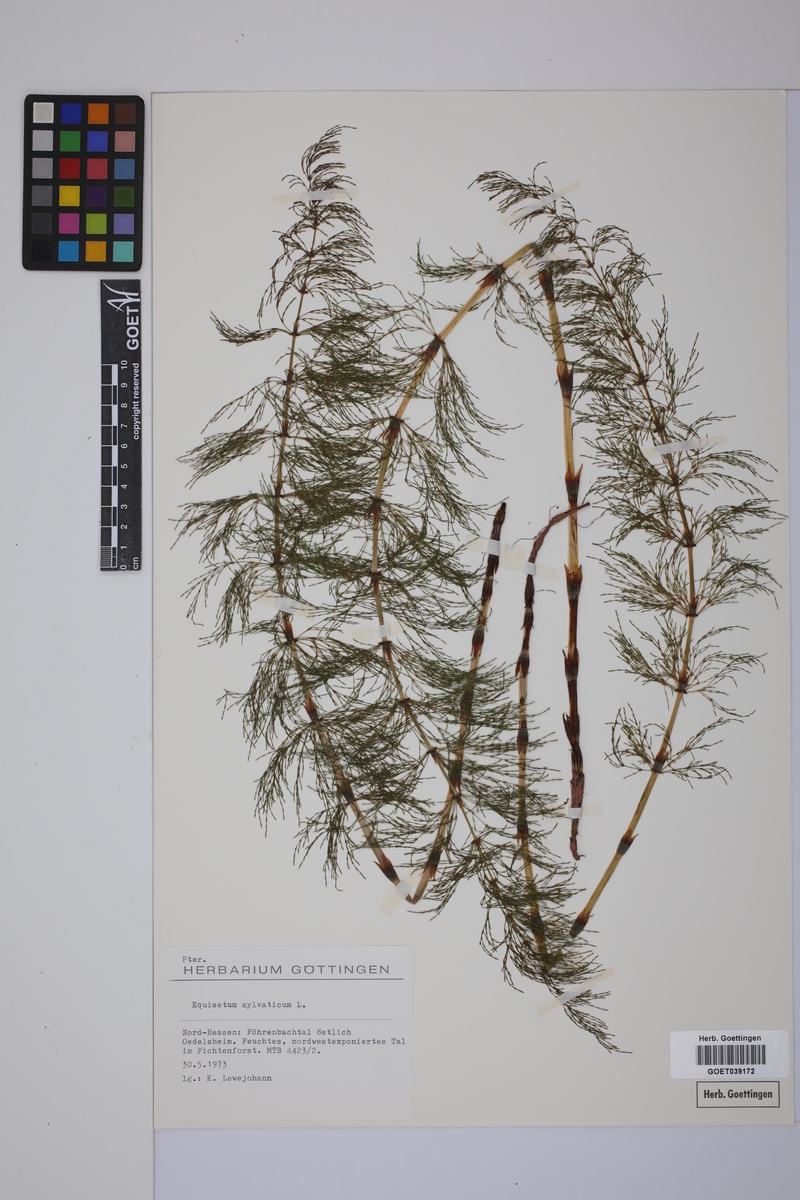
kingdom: Plantae
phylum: Tracheophyta
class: Polypodiopsida
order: Equisetales
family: Equisetaceae
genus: Equisetum
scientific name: Equisetum sylvaticum
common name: Wood horsetail
